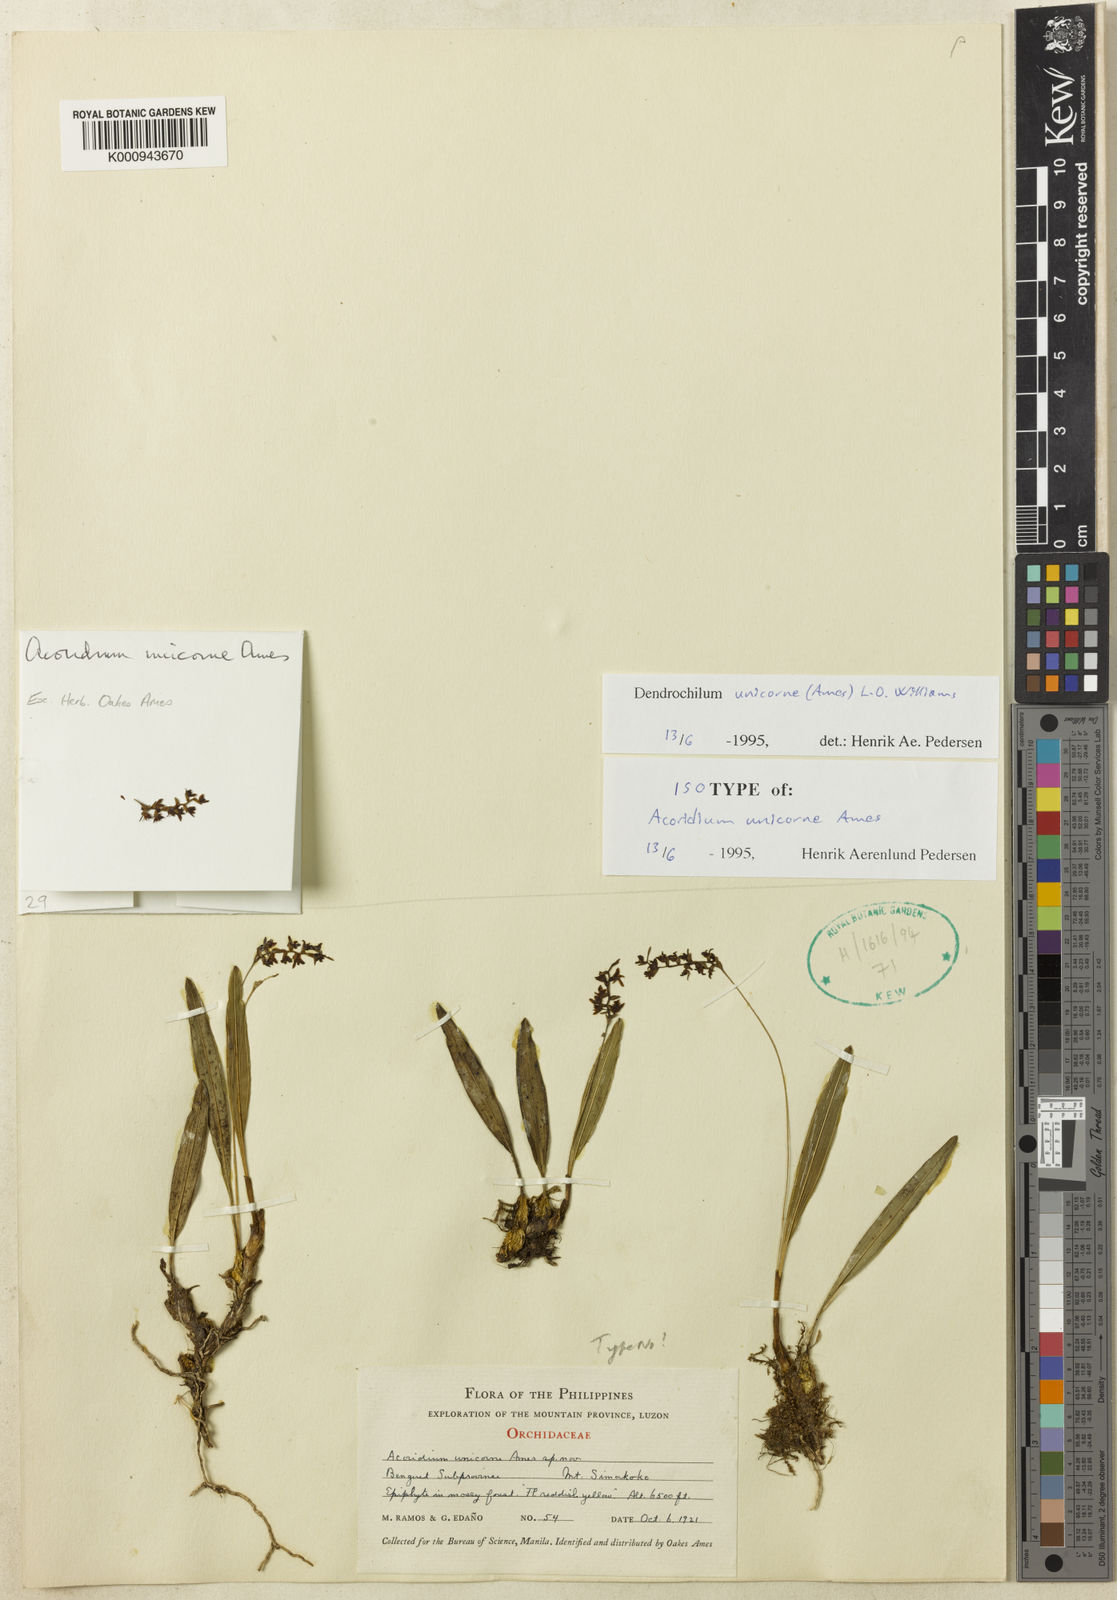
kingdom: Plantae
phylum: Tracheophyta
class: Liliopsida
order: Asparagales
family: Orchidaceae
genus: Coelogyne
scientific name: Coelogyne unicornis
